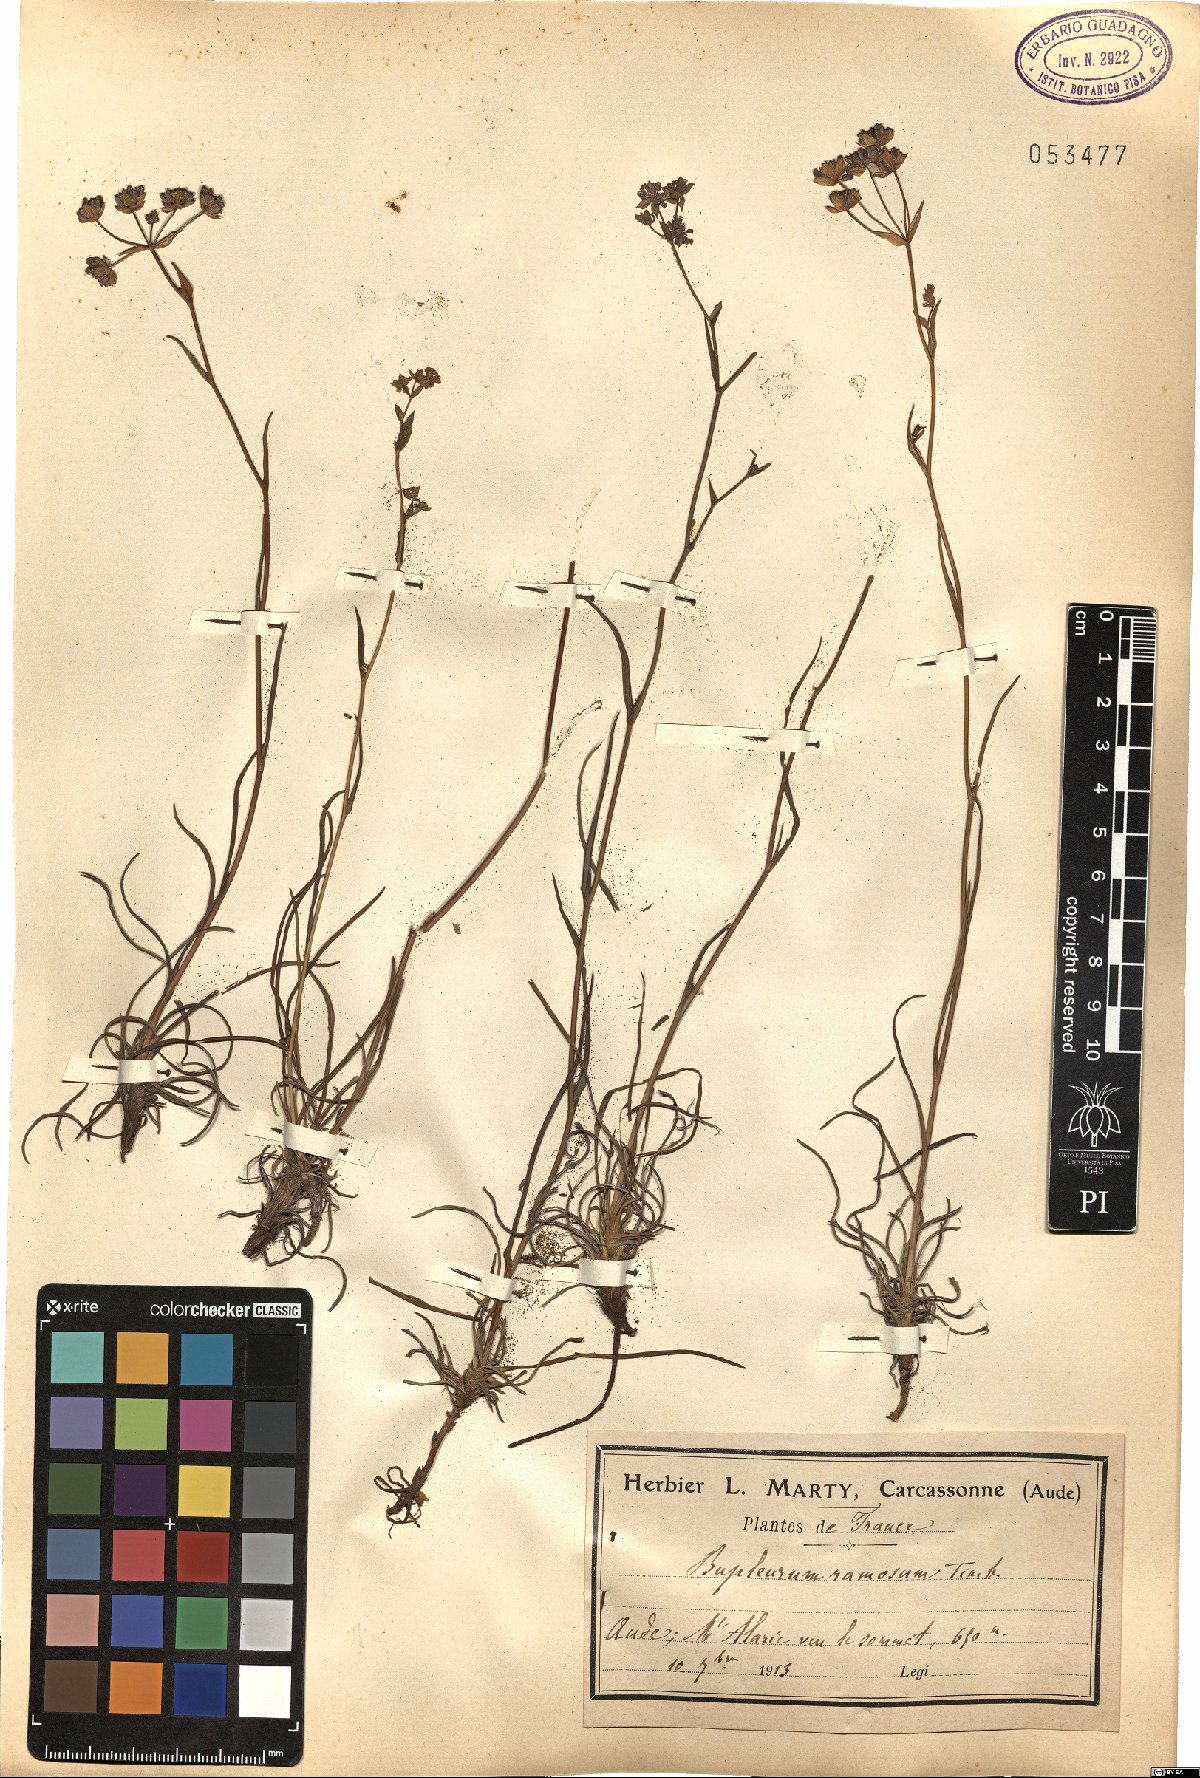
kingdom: Plantae
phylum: Tracheophyta
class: Magnoliopsida
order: Apiales
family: Apiaceae
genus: Bupleurum
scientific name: Bupleurum ranunculoides
